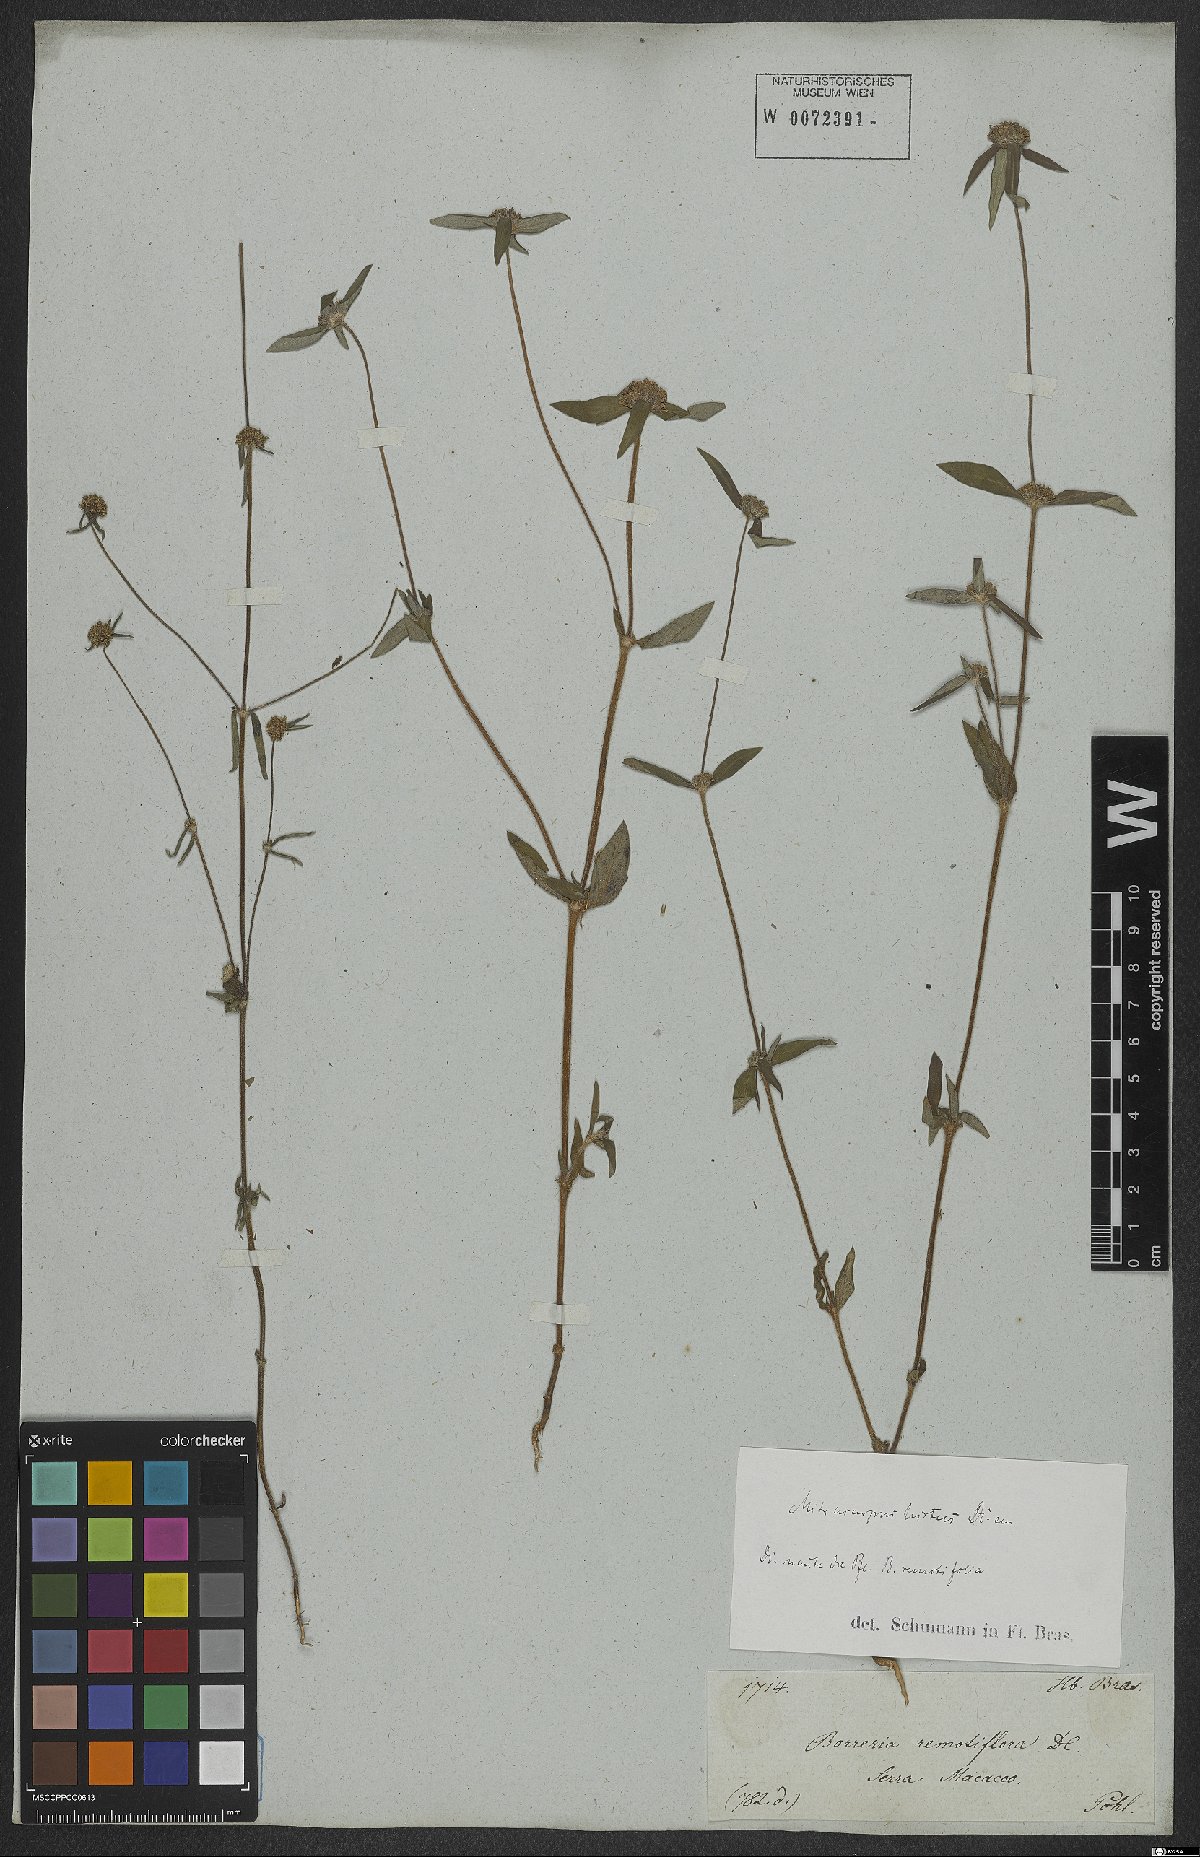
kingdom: Plantae
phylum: Tracheophyta
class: Magnoliopsida
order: Gentianales
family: Rubiaceae
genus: Mitracarpus
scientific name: Mitracarpus hirtus
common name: Tropical girdlepod
